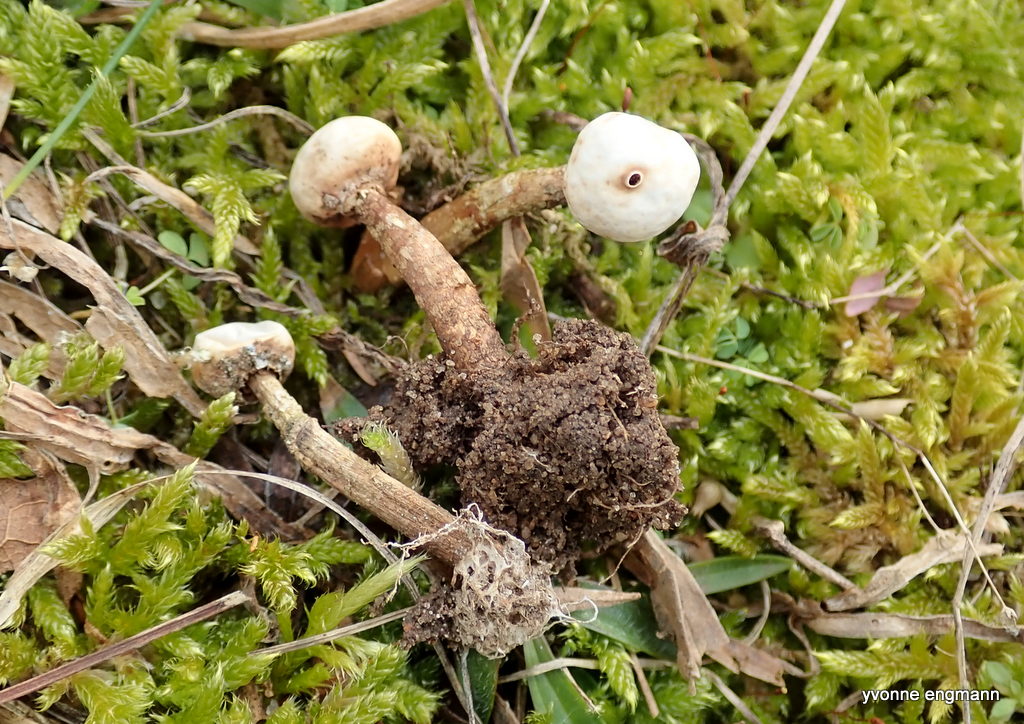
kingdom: Fungi
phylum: Basidiomycota
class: Agaricomycetes
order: Agaricales
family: Agaricaceae
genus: Tulostoma
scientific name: Tulostoma brumale
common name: vinter-stilkbovist
